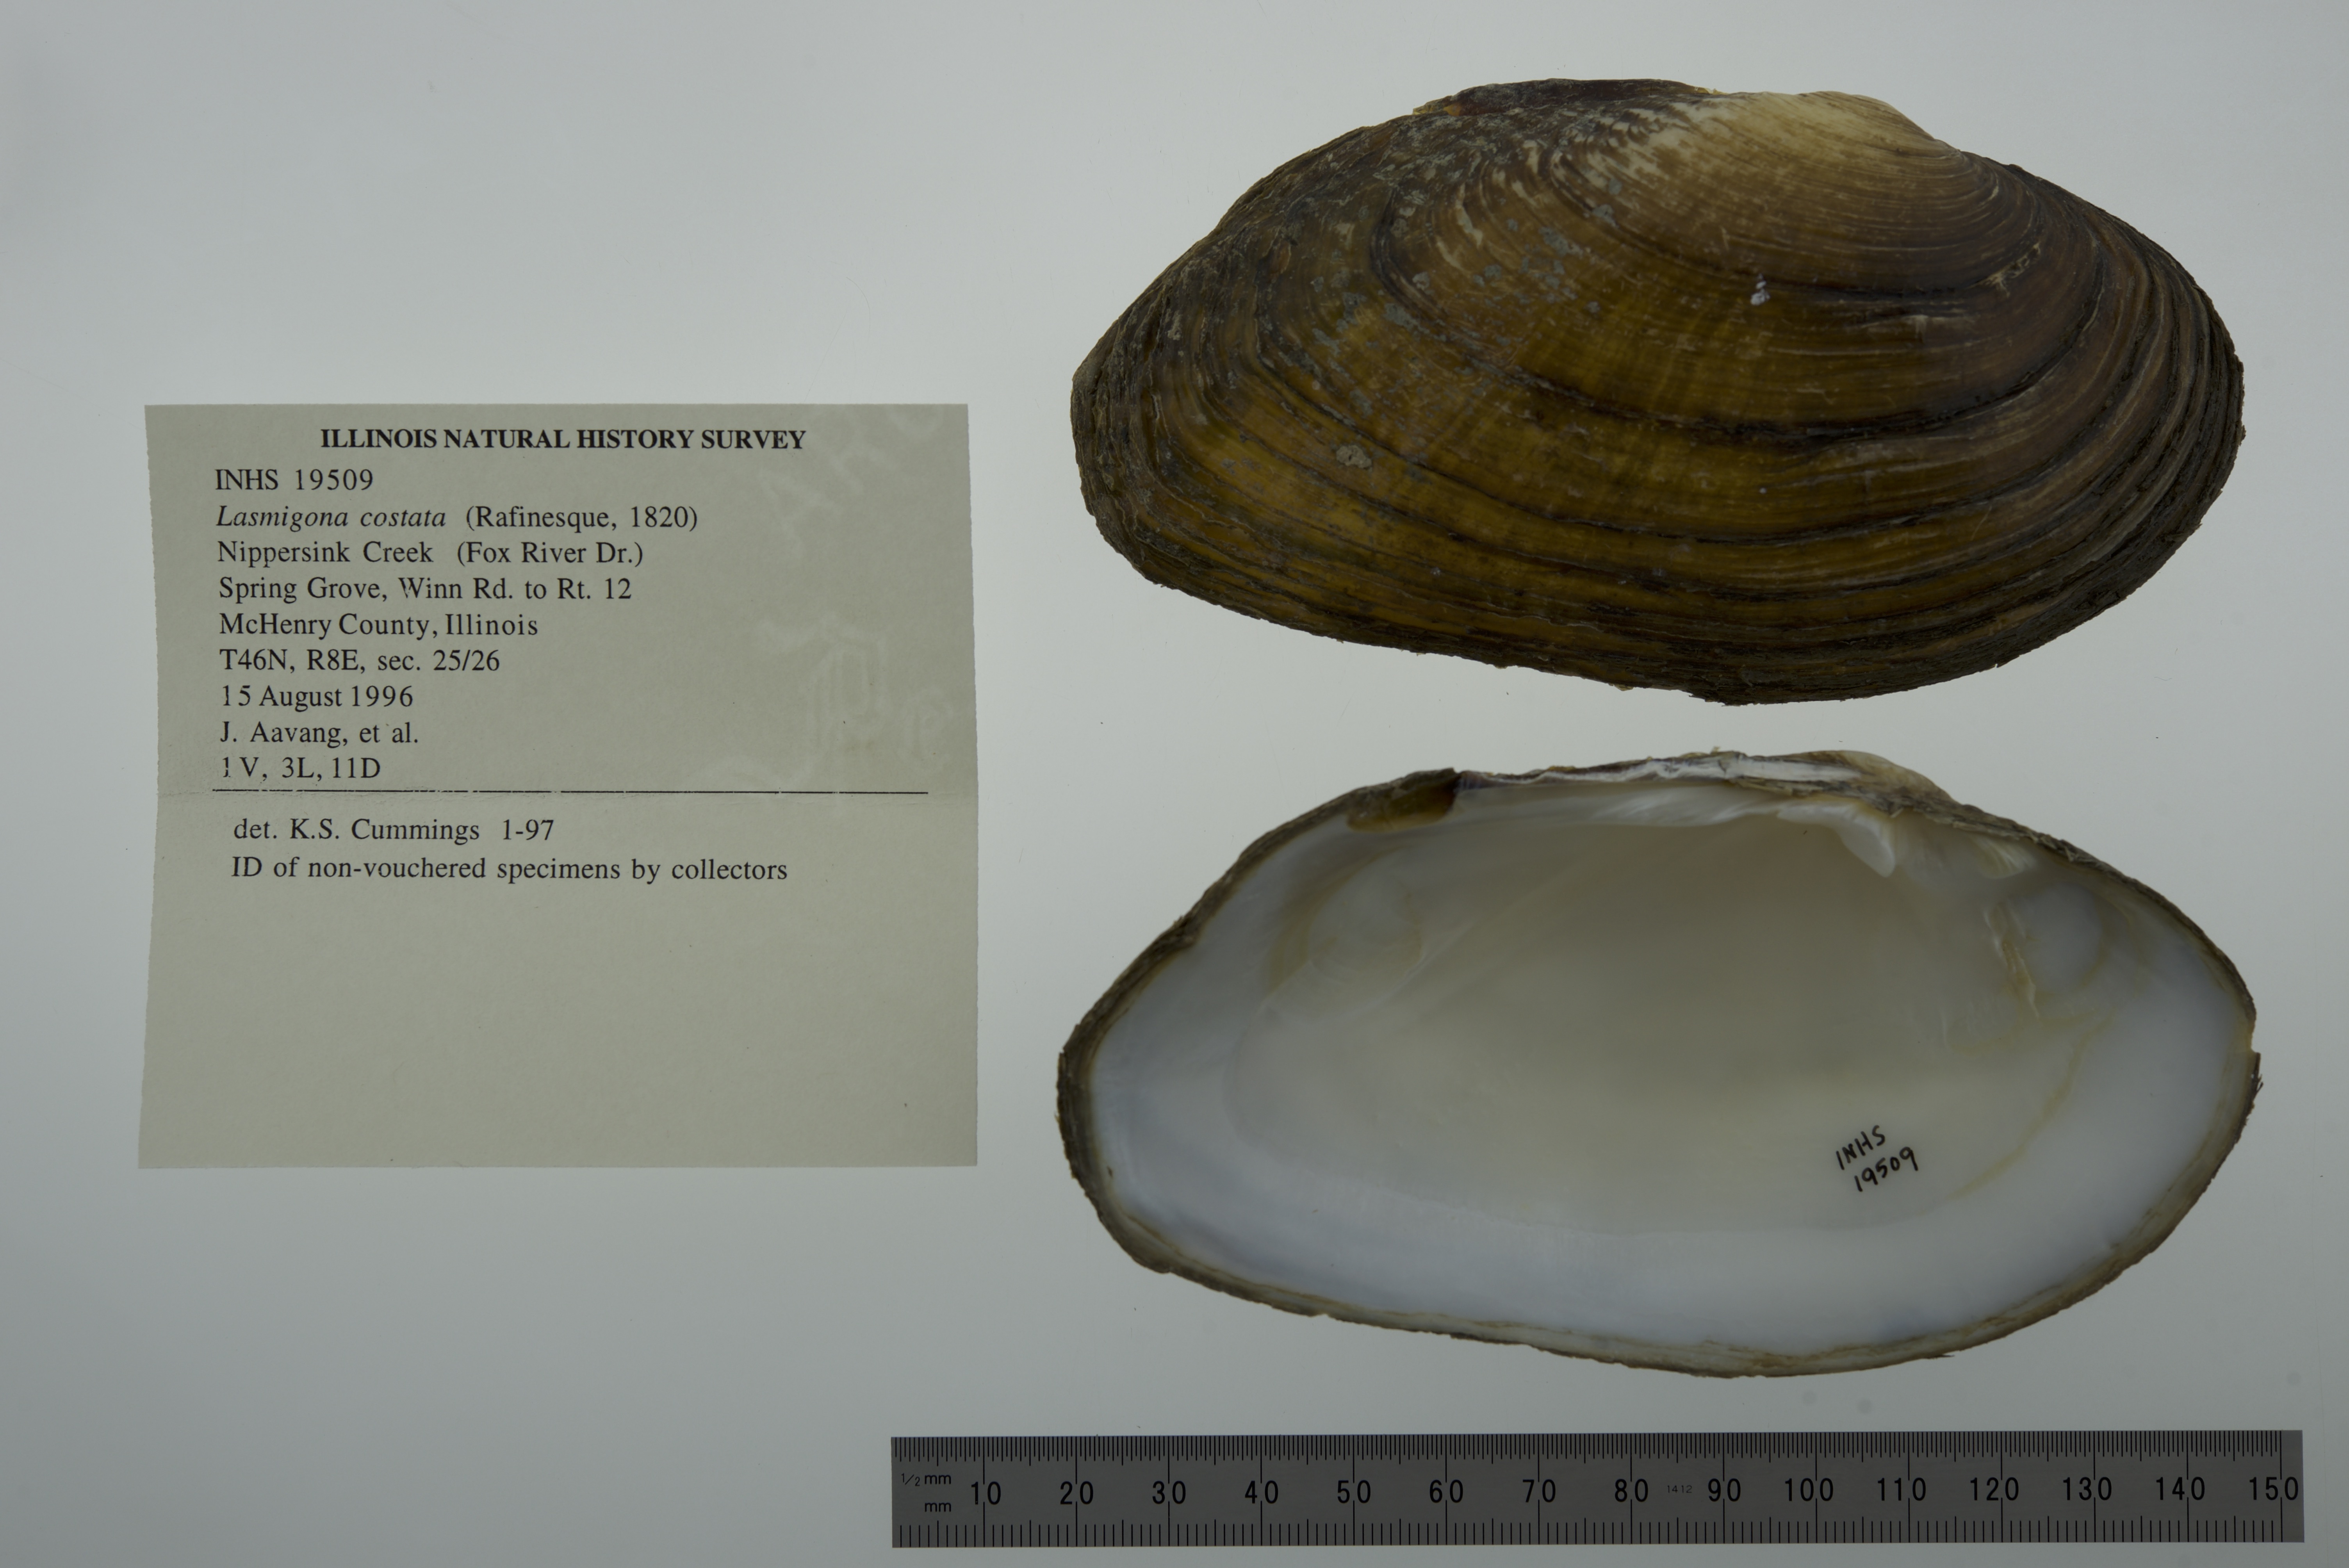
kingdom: Animalia
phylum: Mollusca
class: Bivalvia
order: Unionida
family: Unionidae
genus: Lasmigona
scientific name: Lasmigona costata
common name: Flutedshell
